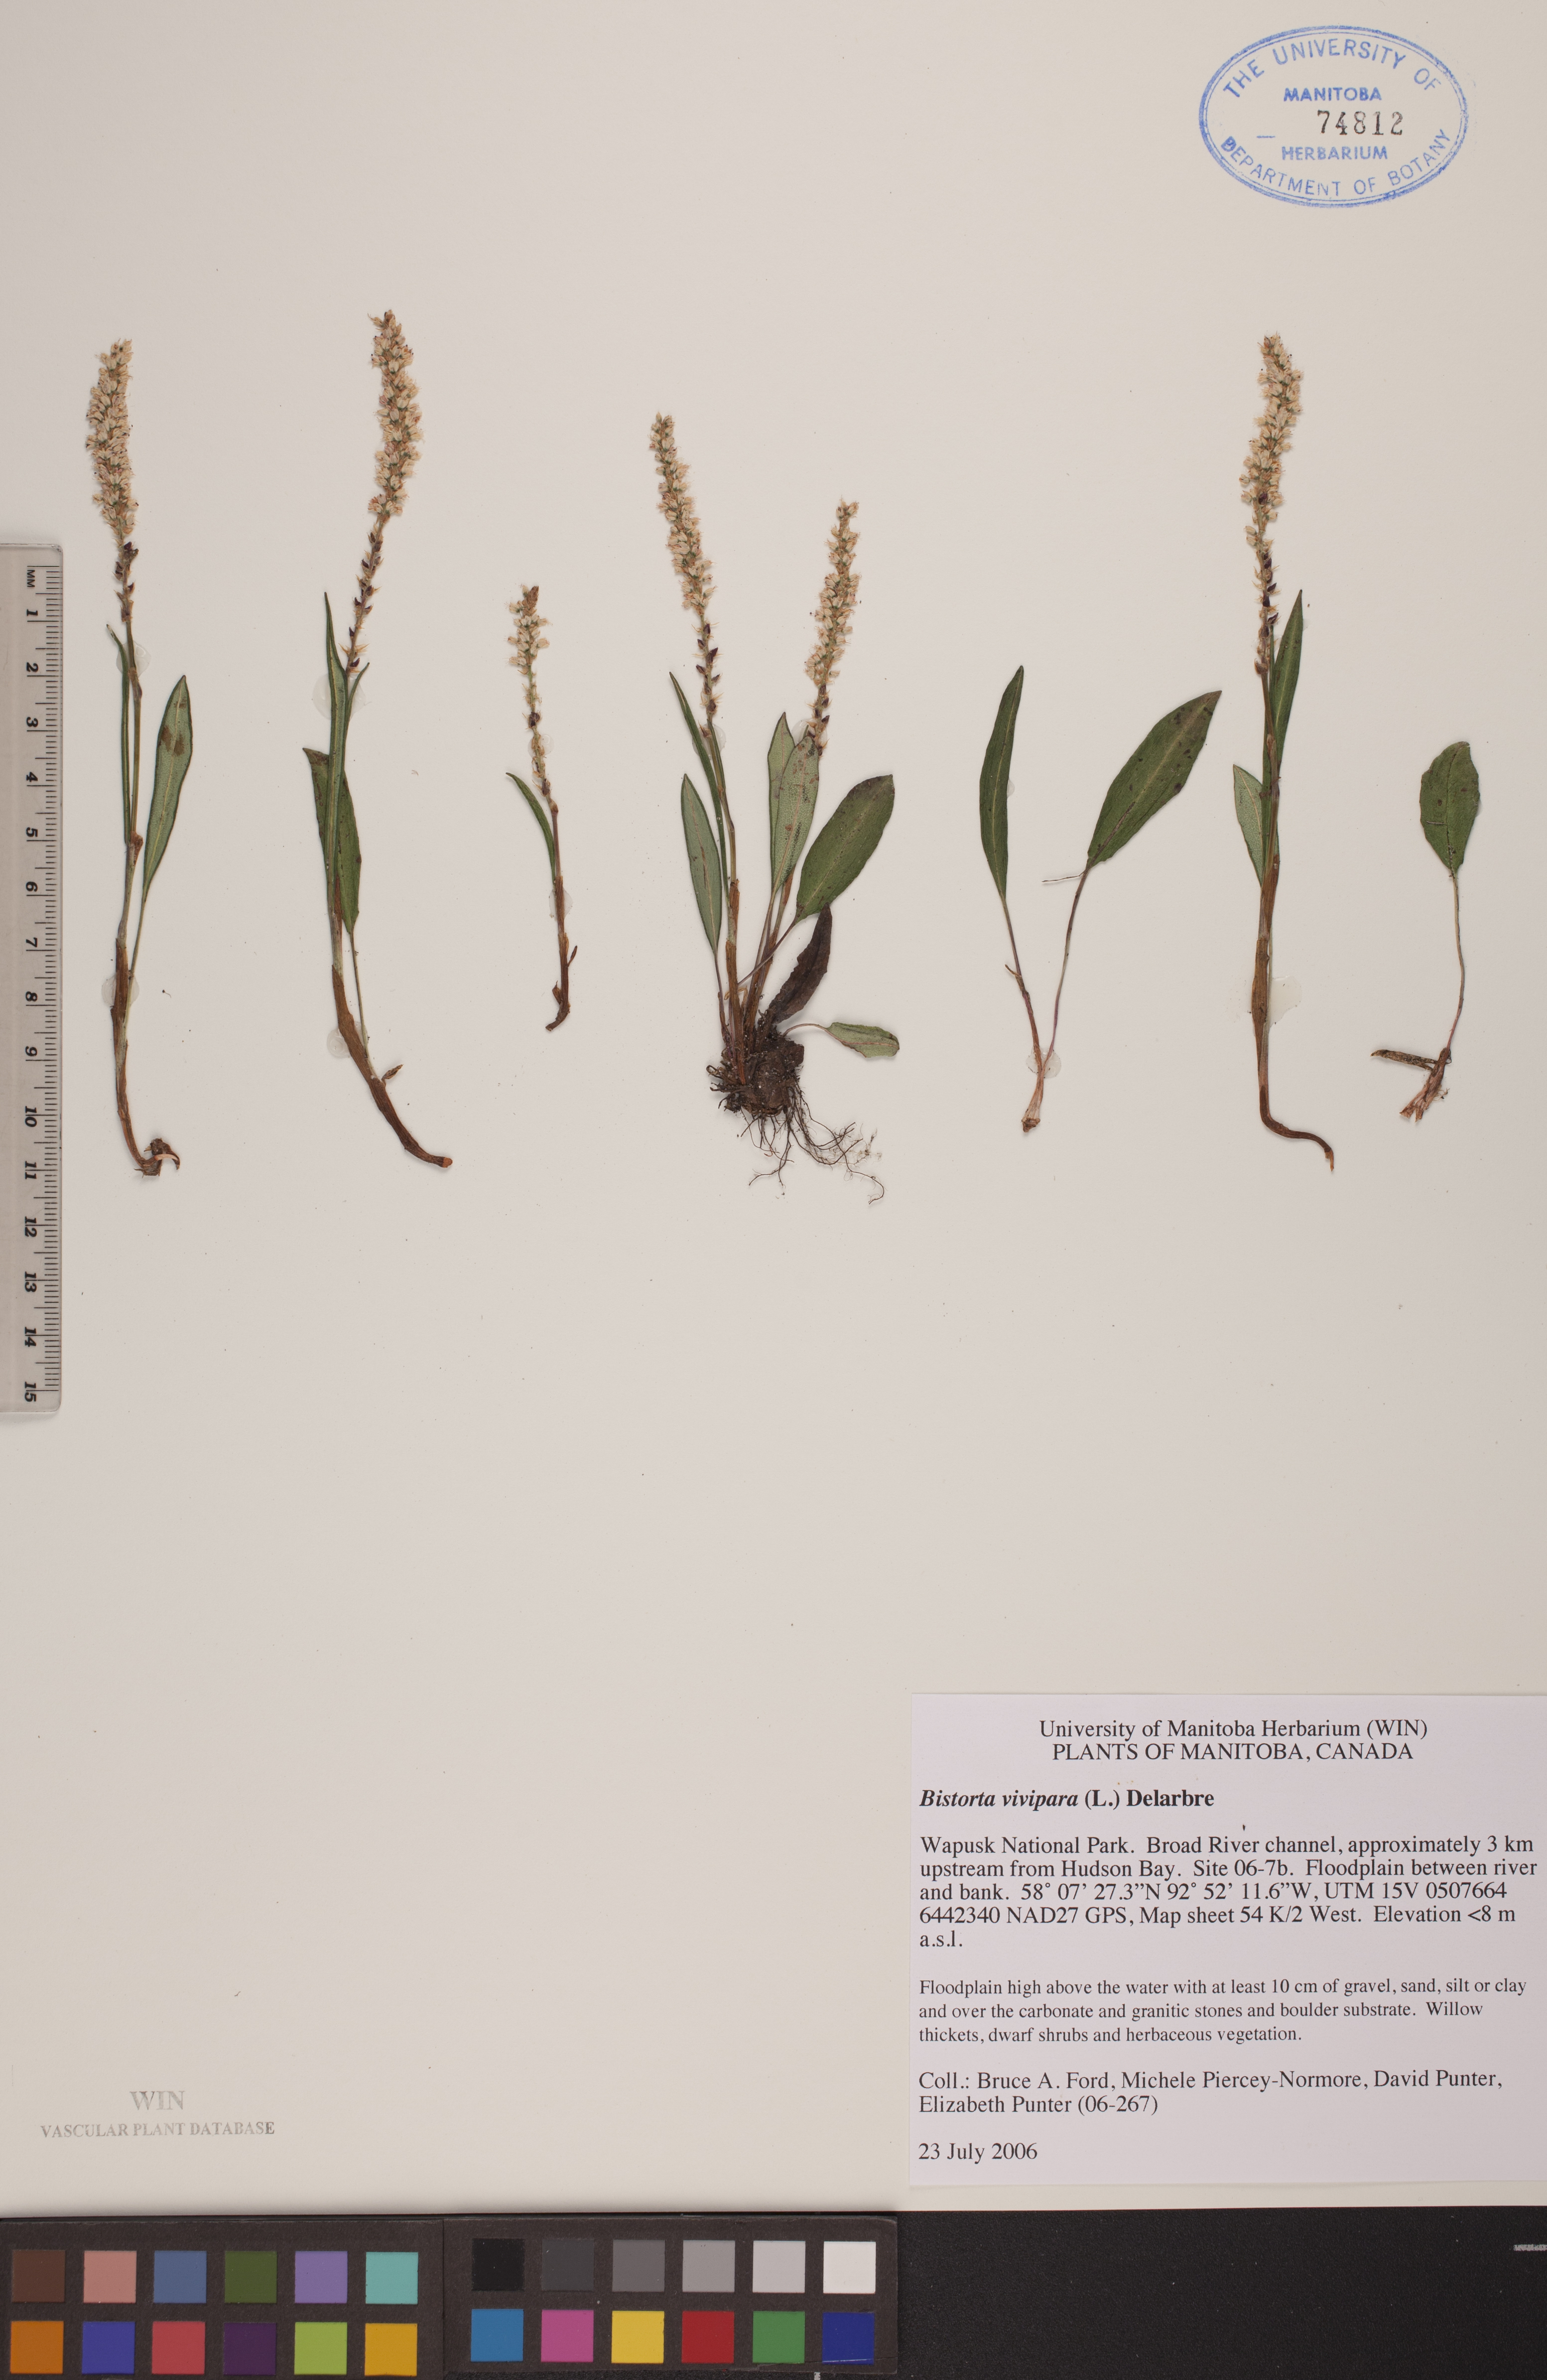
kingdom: Plantae
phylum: Tracheophyta
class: Magnoliopsida
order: Caryophyllales
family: Polygonaceae
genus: Bistorta
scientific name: Bistorta vivipara
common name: Alpine bistort
